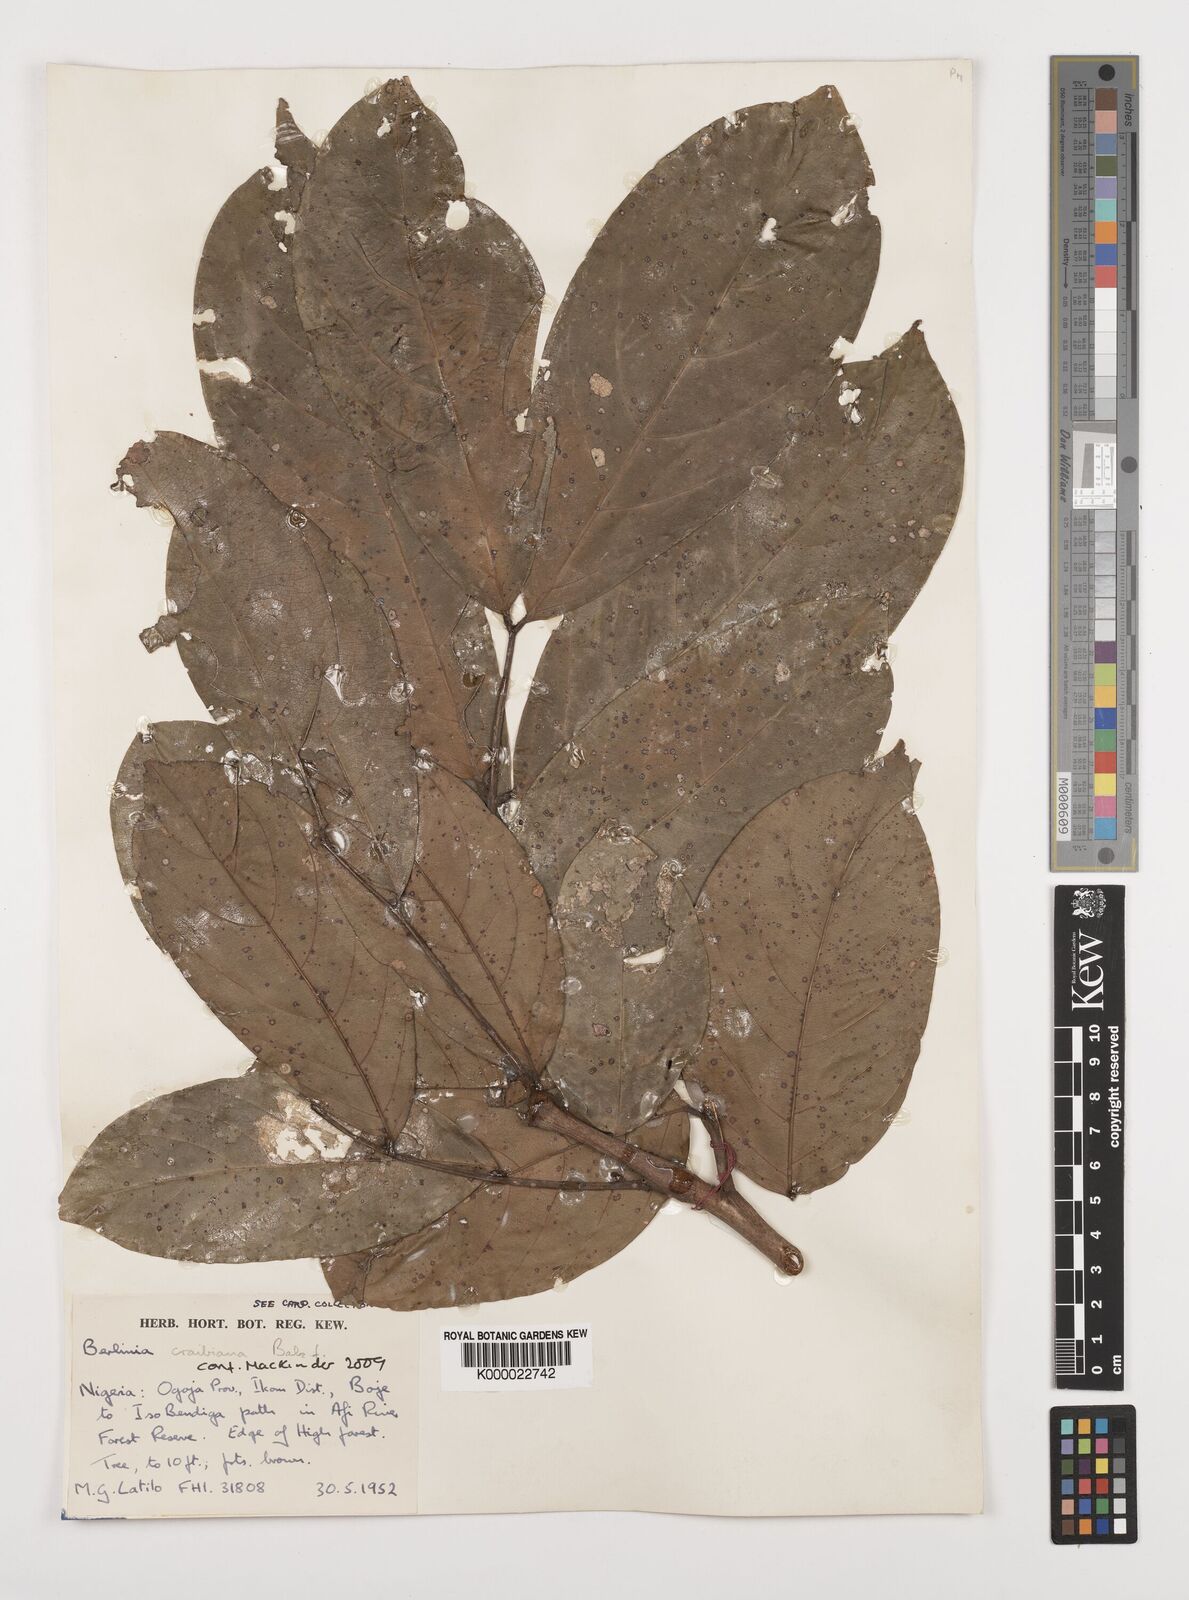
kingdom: Plantae
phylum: Tracheophyta
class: Magnoliopsida
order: Fabales
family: Fabaceae
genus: Berlinia
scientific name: Berlinia craibiana
